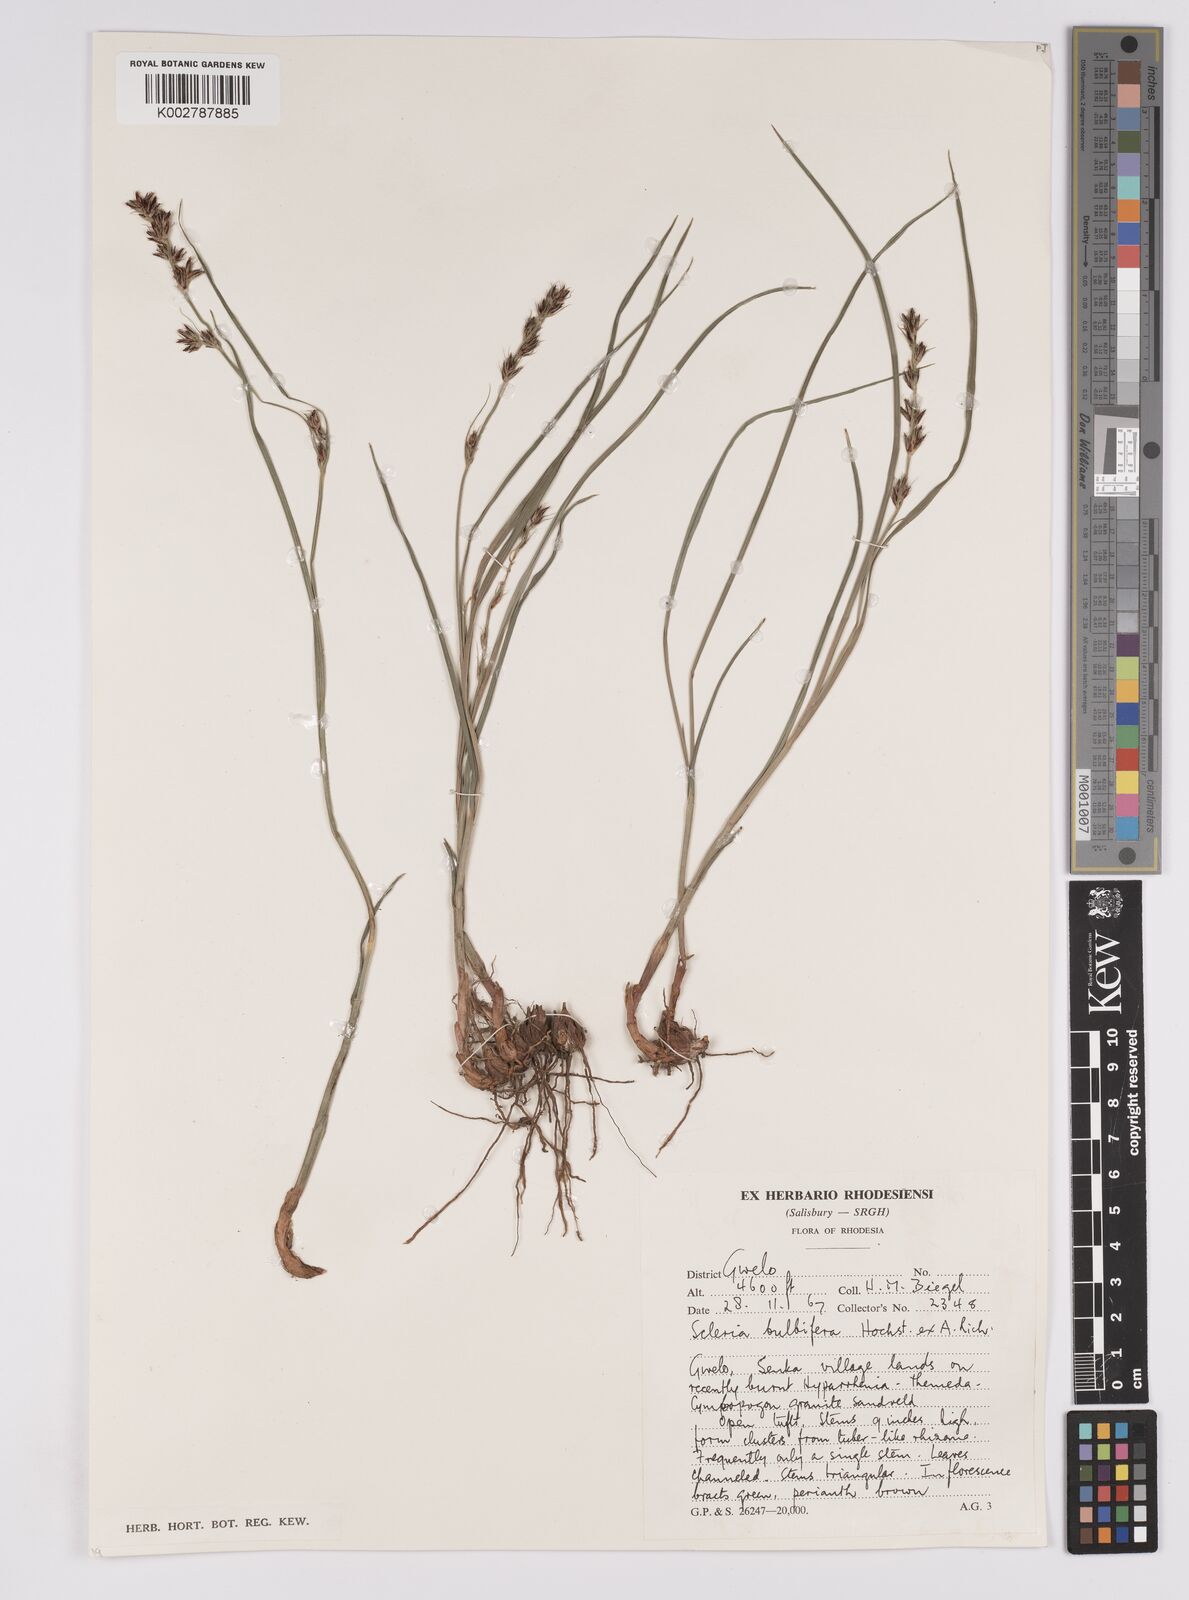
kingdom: Plantae
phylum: Tracheophyta
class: Liliopsida
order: Poales
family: Cyperaceae
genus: Scleria
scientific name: Scleria bulbifera
